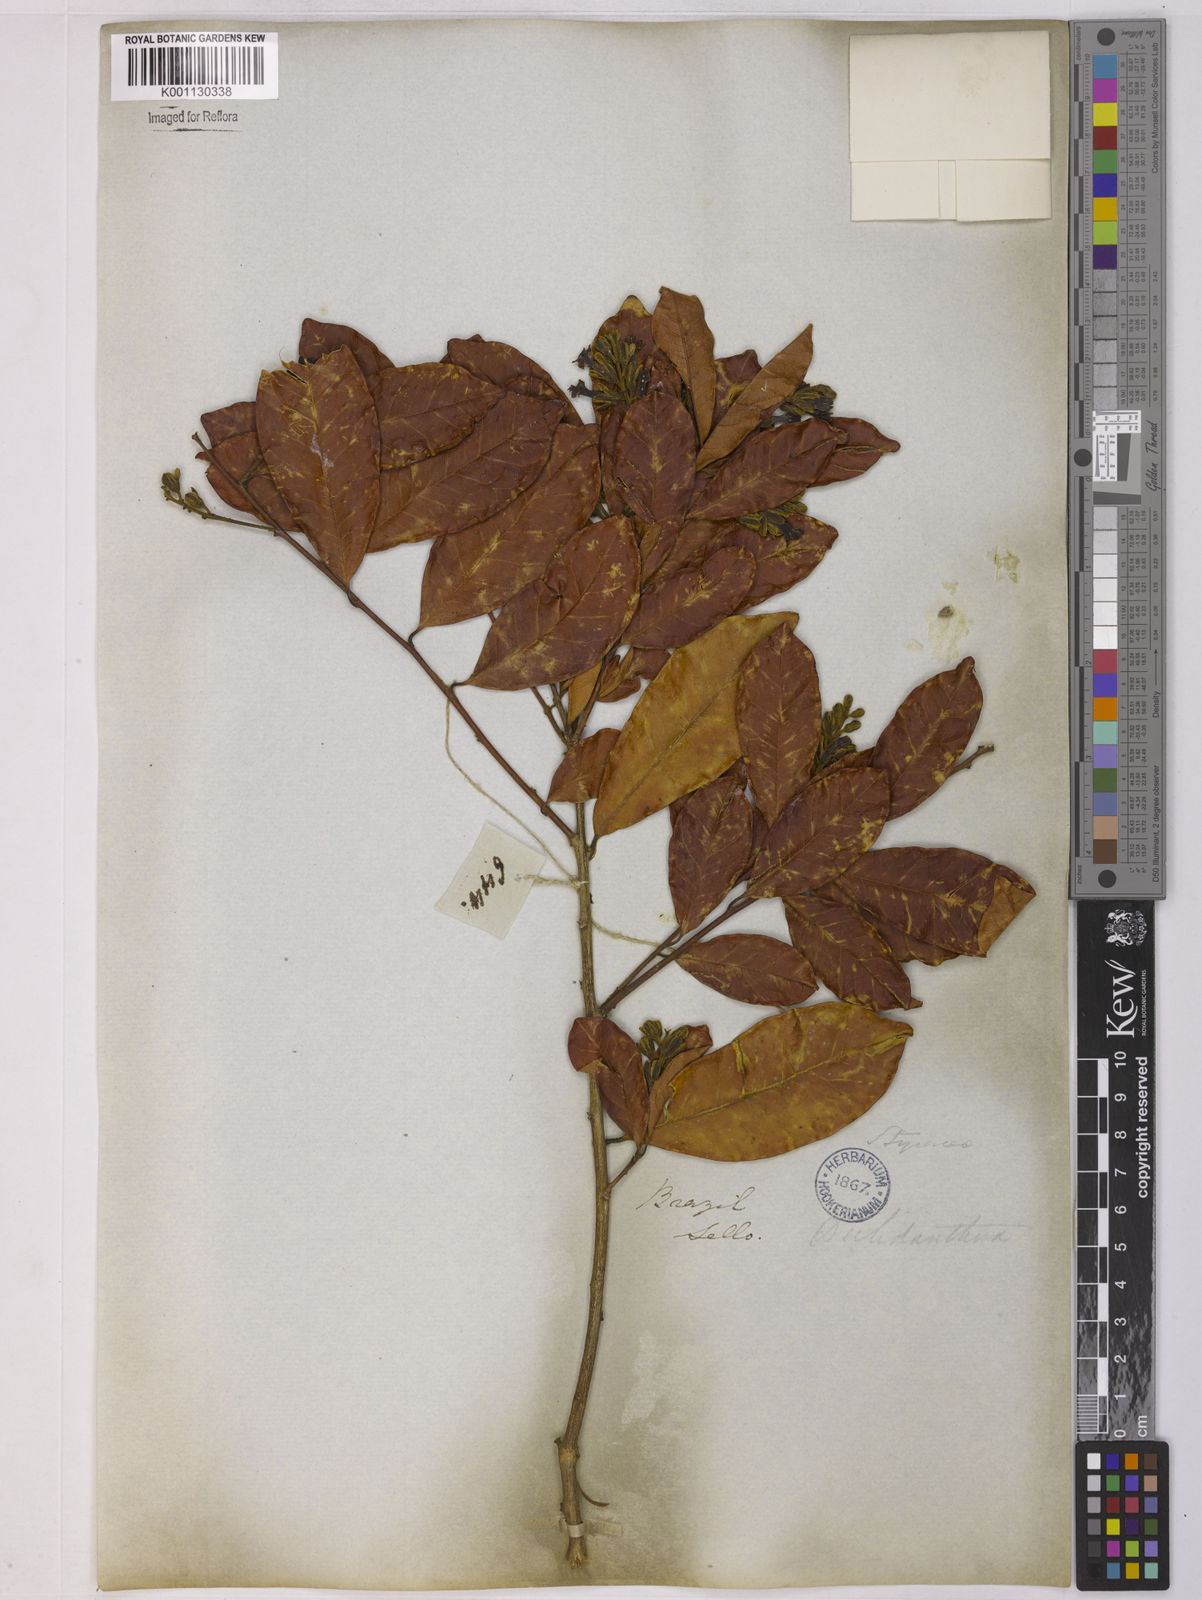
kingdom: Plantae
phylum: Tracheophyta
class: Magnoliopsida
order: Fabales
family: Polygalaceae
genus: Diclidanthera
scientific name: Diclidanthera
